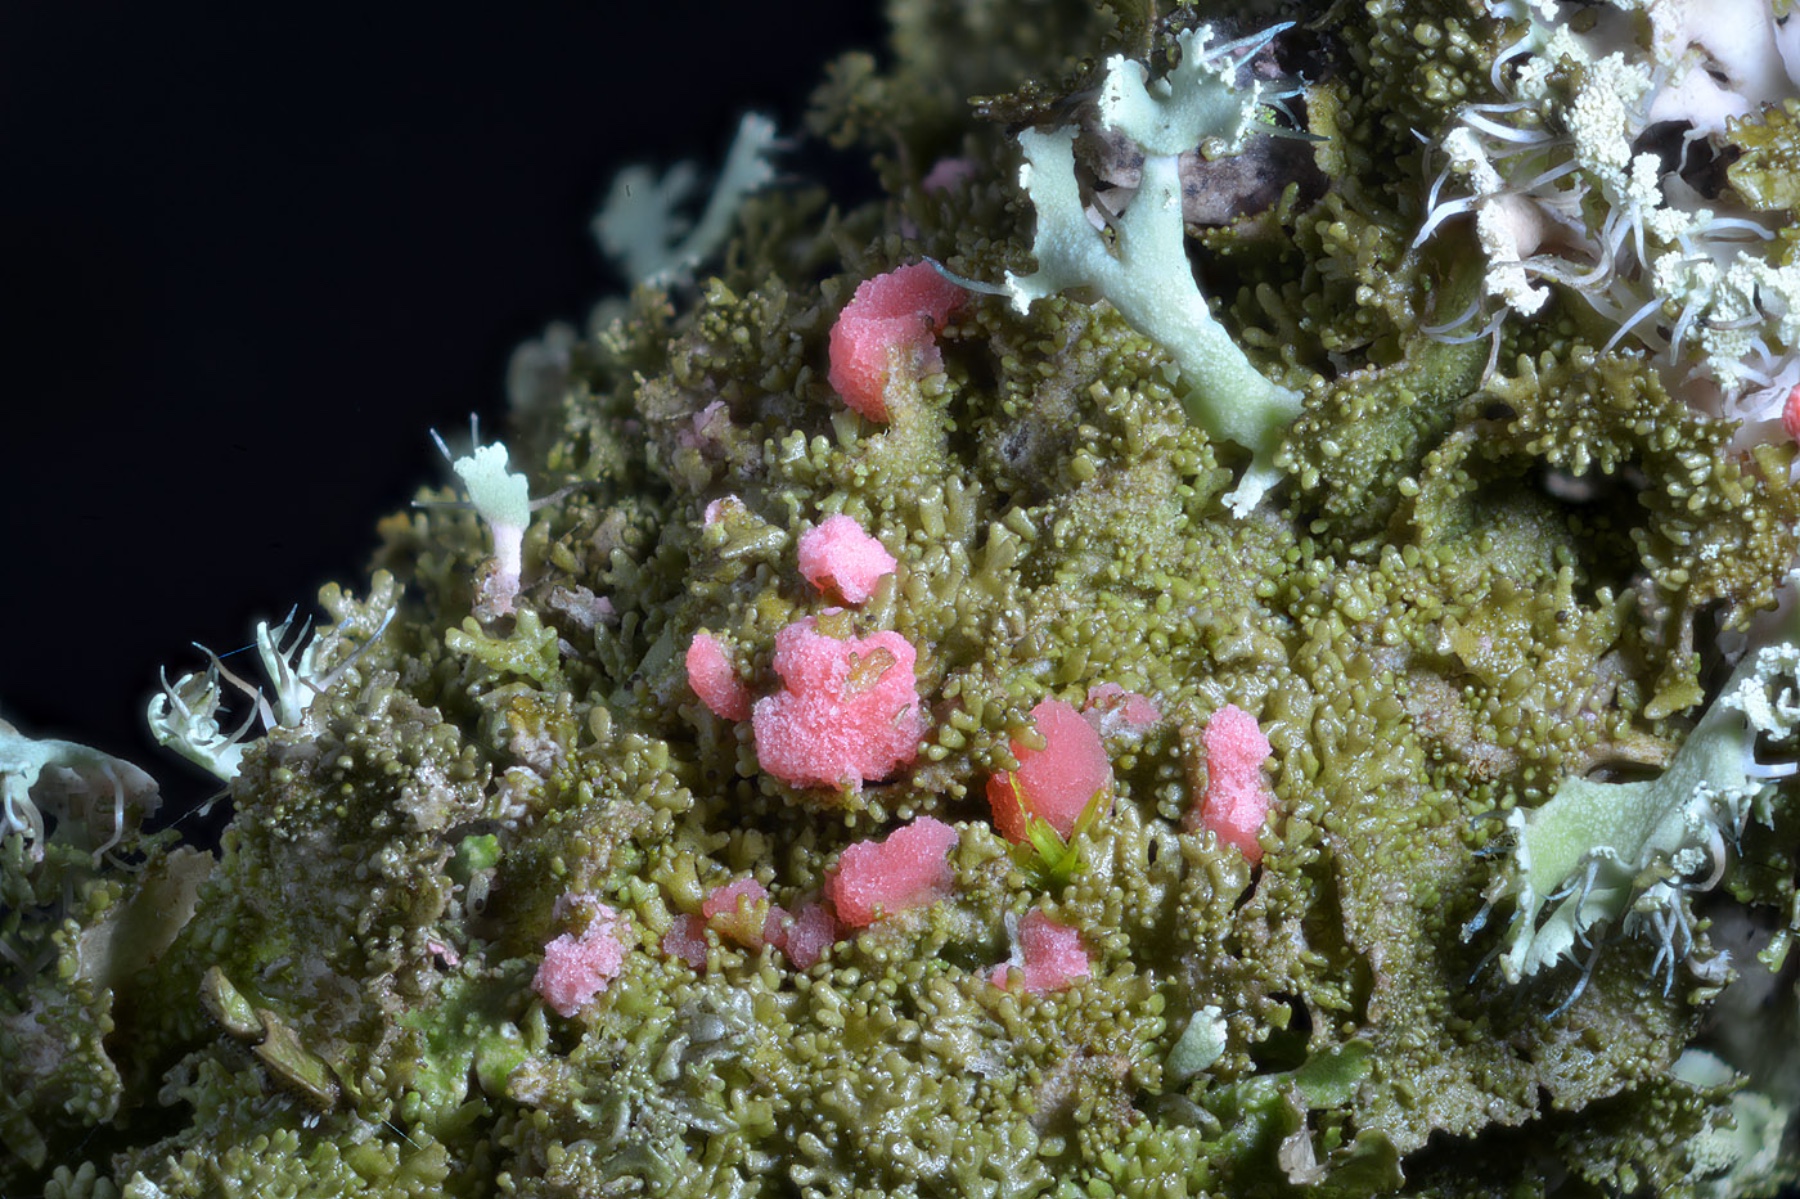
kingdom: Fungi
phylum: Ascomycota
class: Sordariomycetes
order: Hypocreales
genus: Illosporiopsis
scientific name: Illosporiopsis christiansenii
